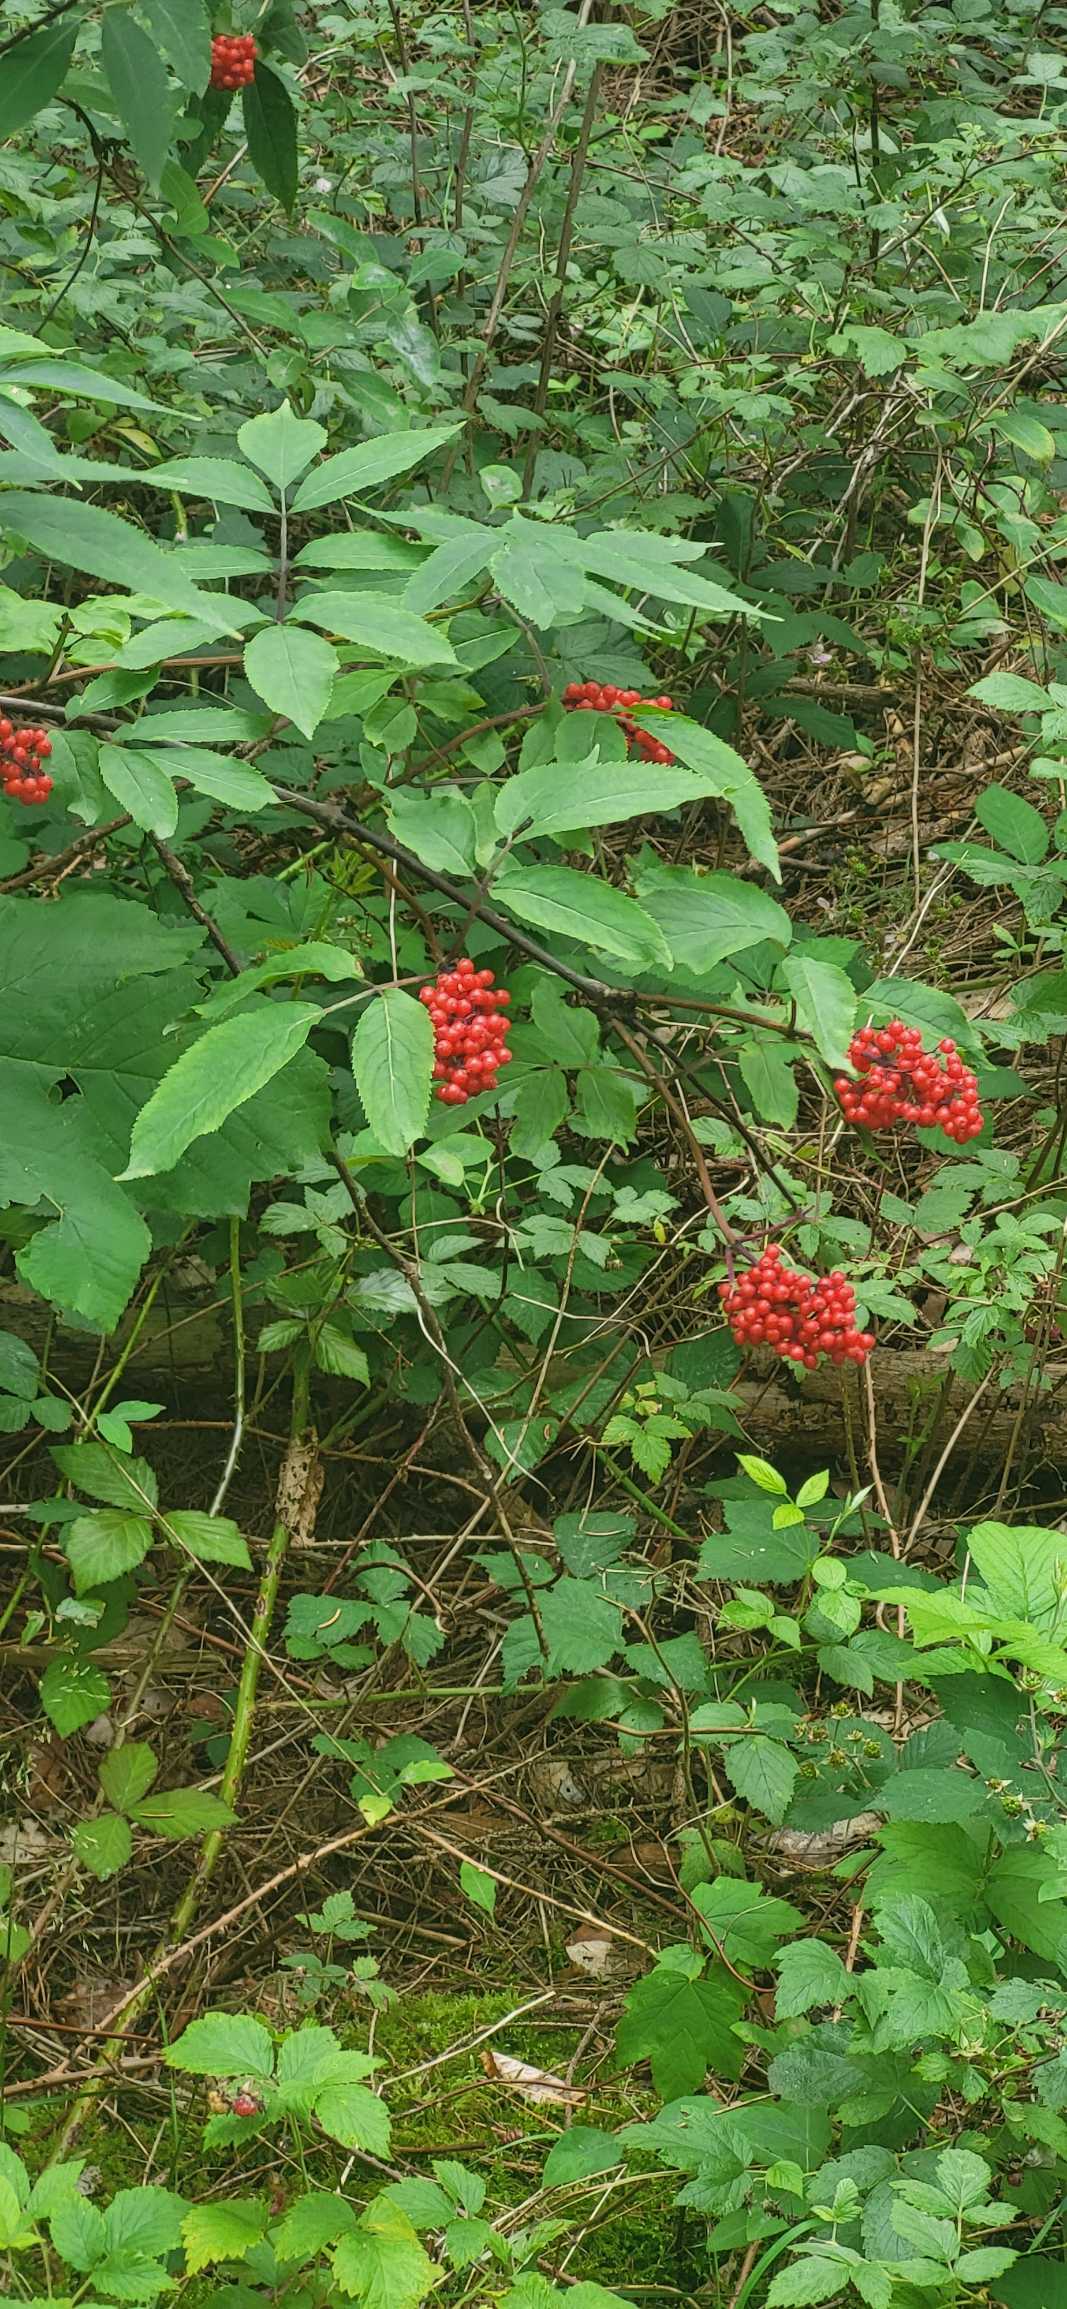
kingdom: Plantae
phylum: Tracheophyta
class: Magnoliopsida
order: Dipsacales
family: Viburnaceae
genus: Sambucus
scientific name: Sambucus racemosa
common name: Drue-hyld
